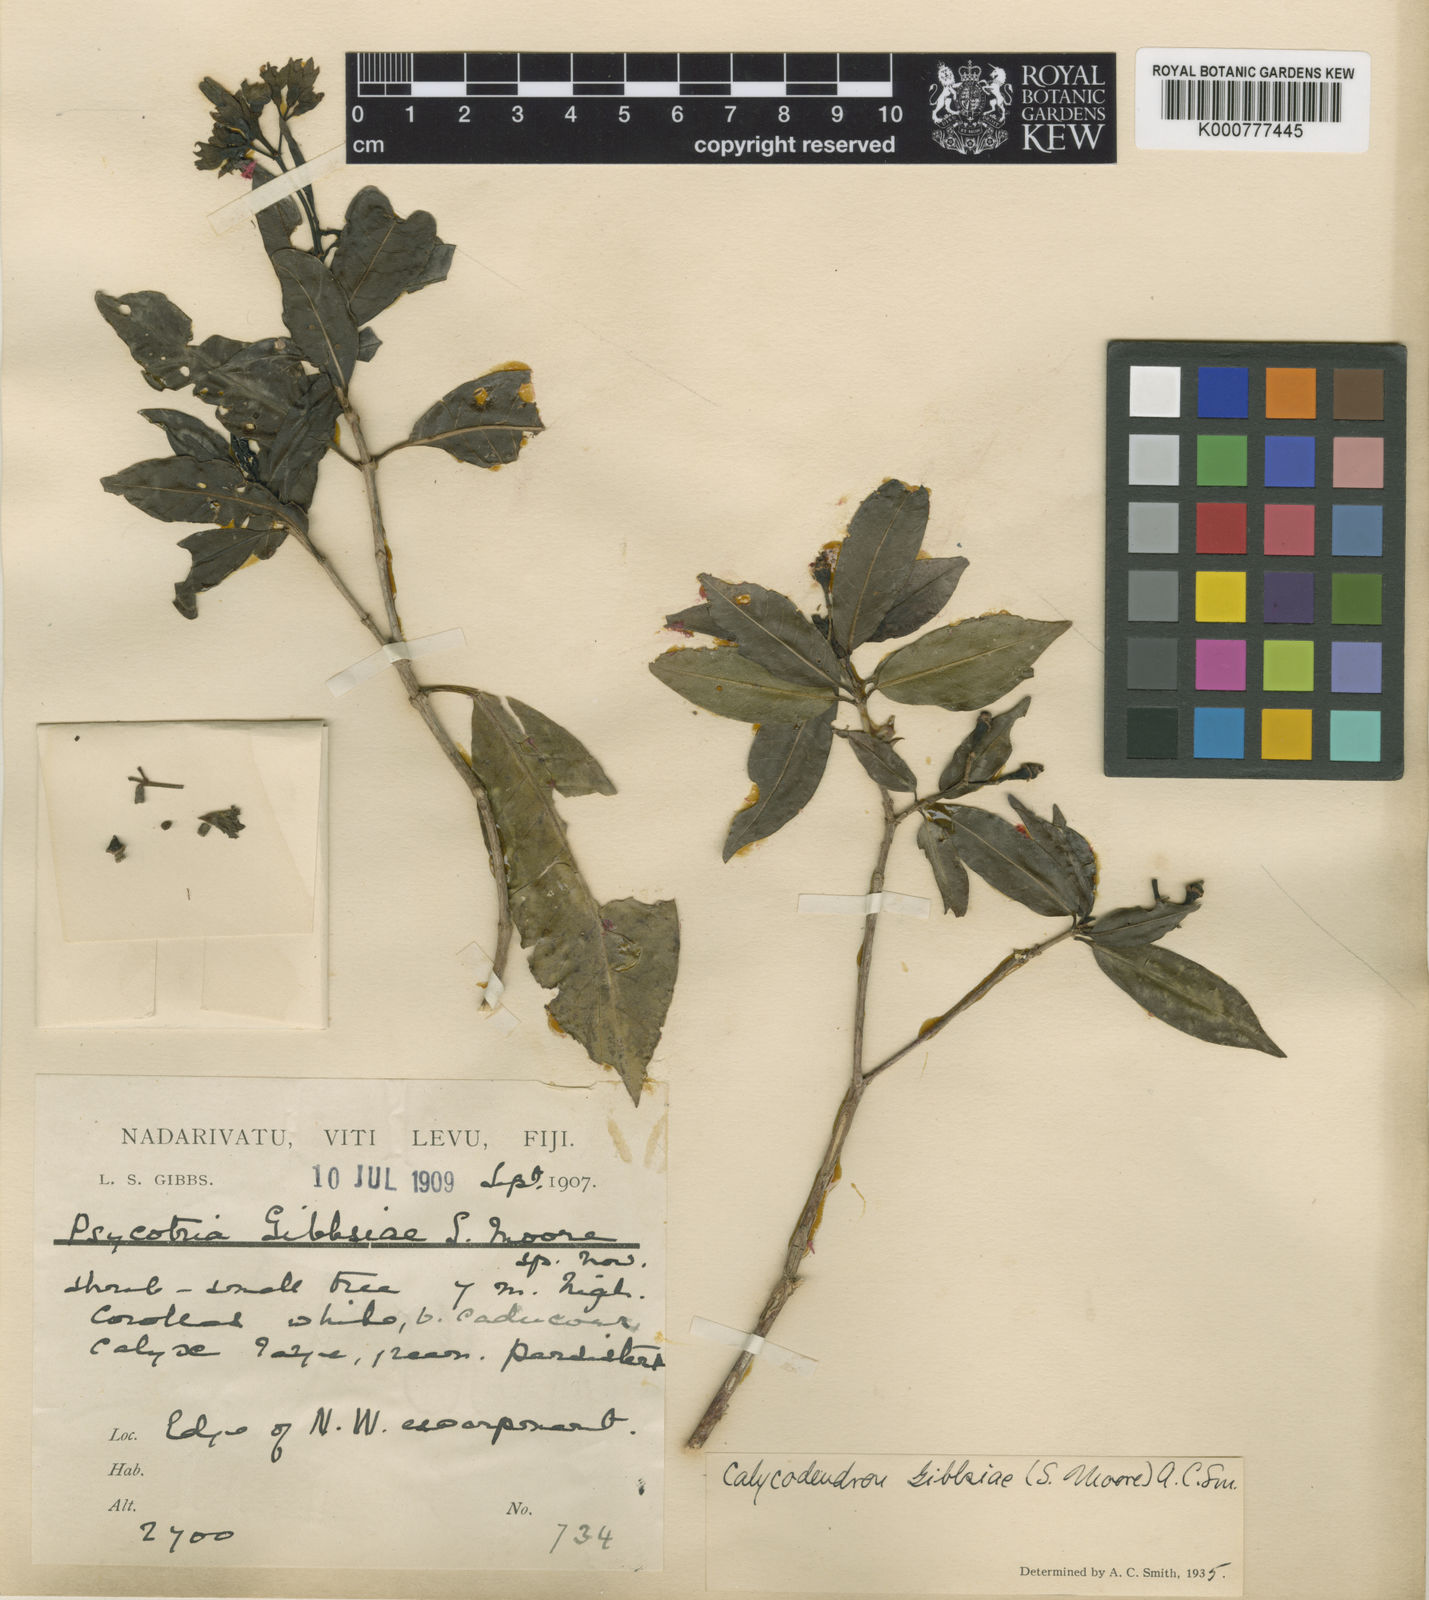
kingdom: Plantae
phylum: Tracheophyta
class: Magnoliopsida
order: Gentianales
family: Rubiaceae
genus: Psychotria
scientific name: Psychotria gibbsiae
